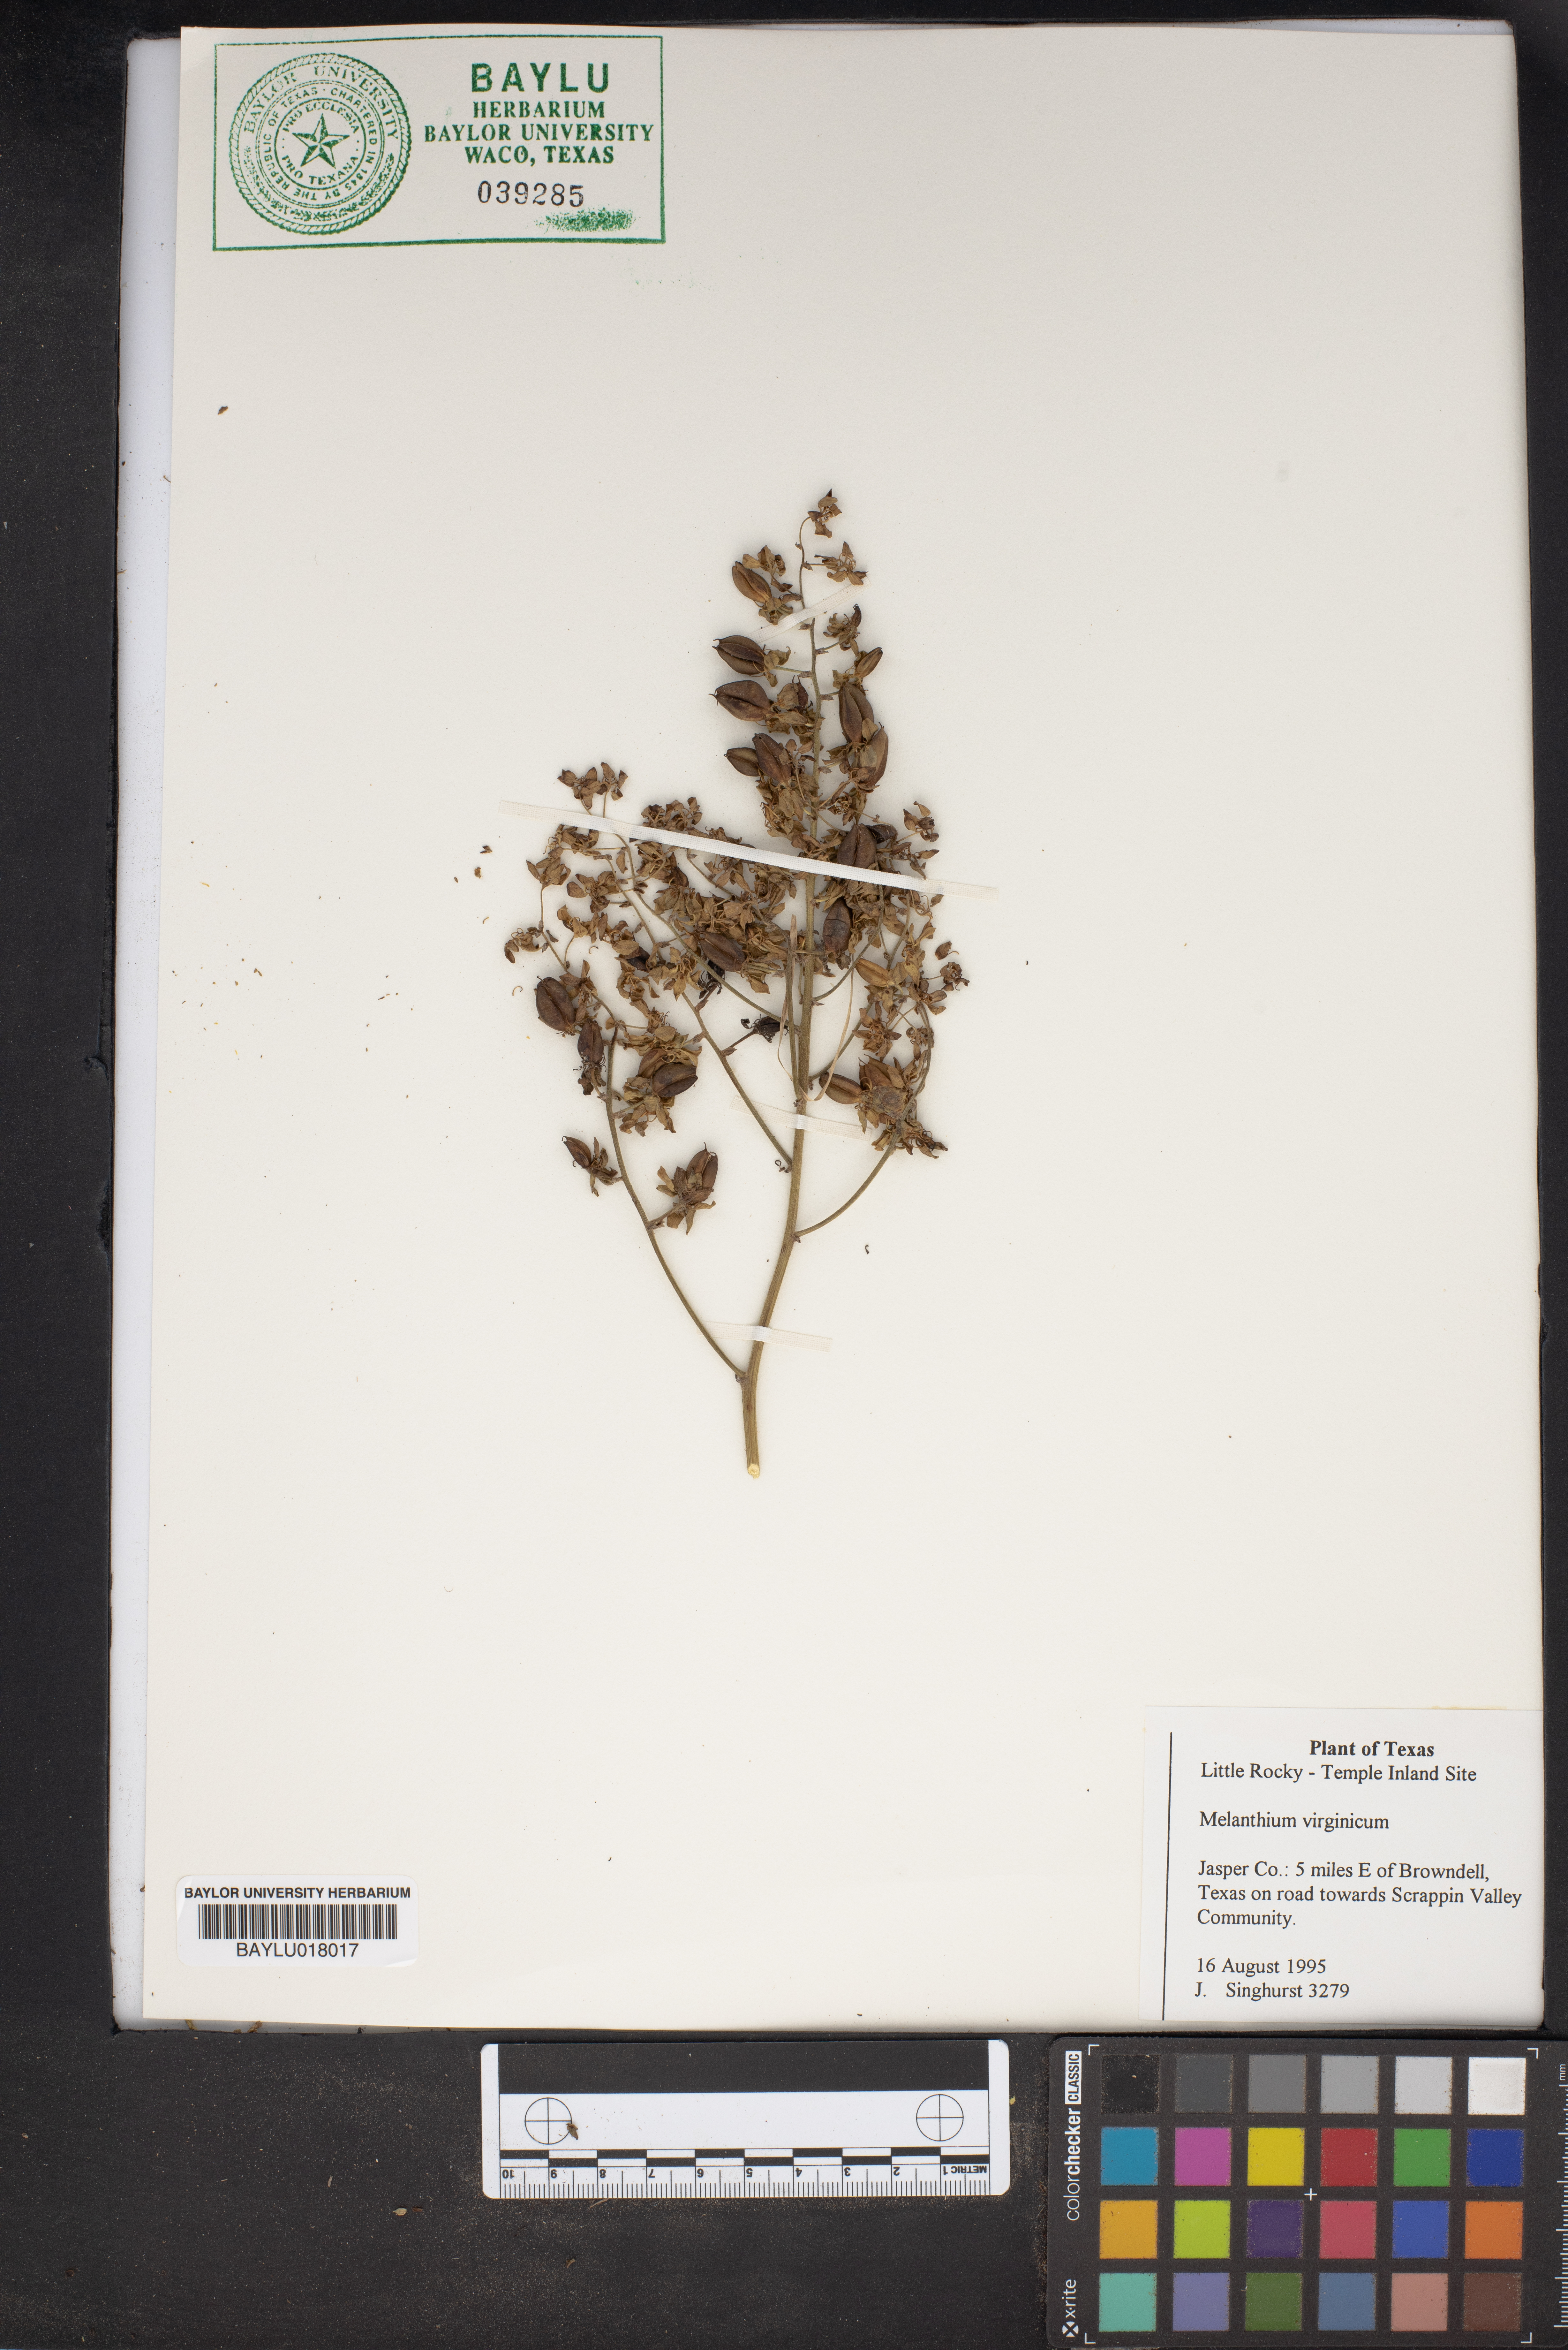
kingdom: Plantae
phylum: Tracheophyta
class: Liliopsida
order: Liliales
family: Melanthiaceae
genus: Melanthium
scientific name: Melanthium virginicum
